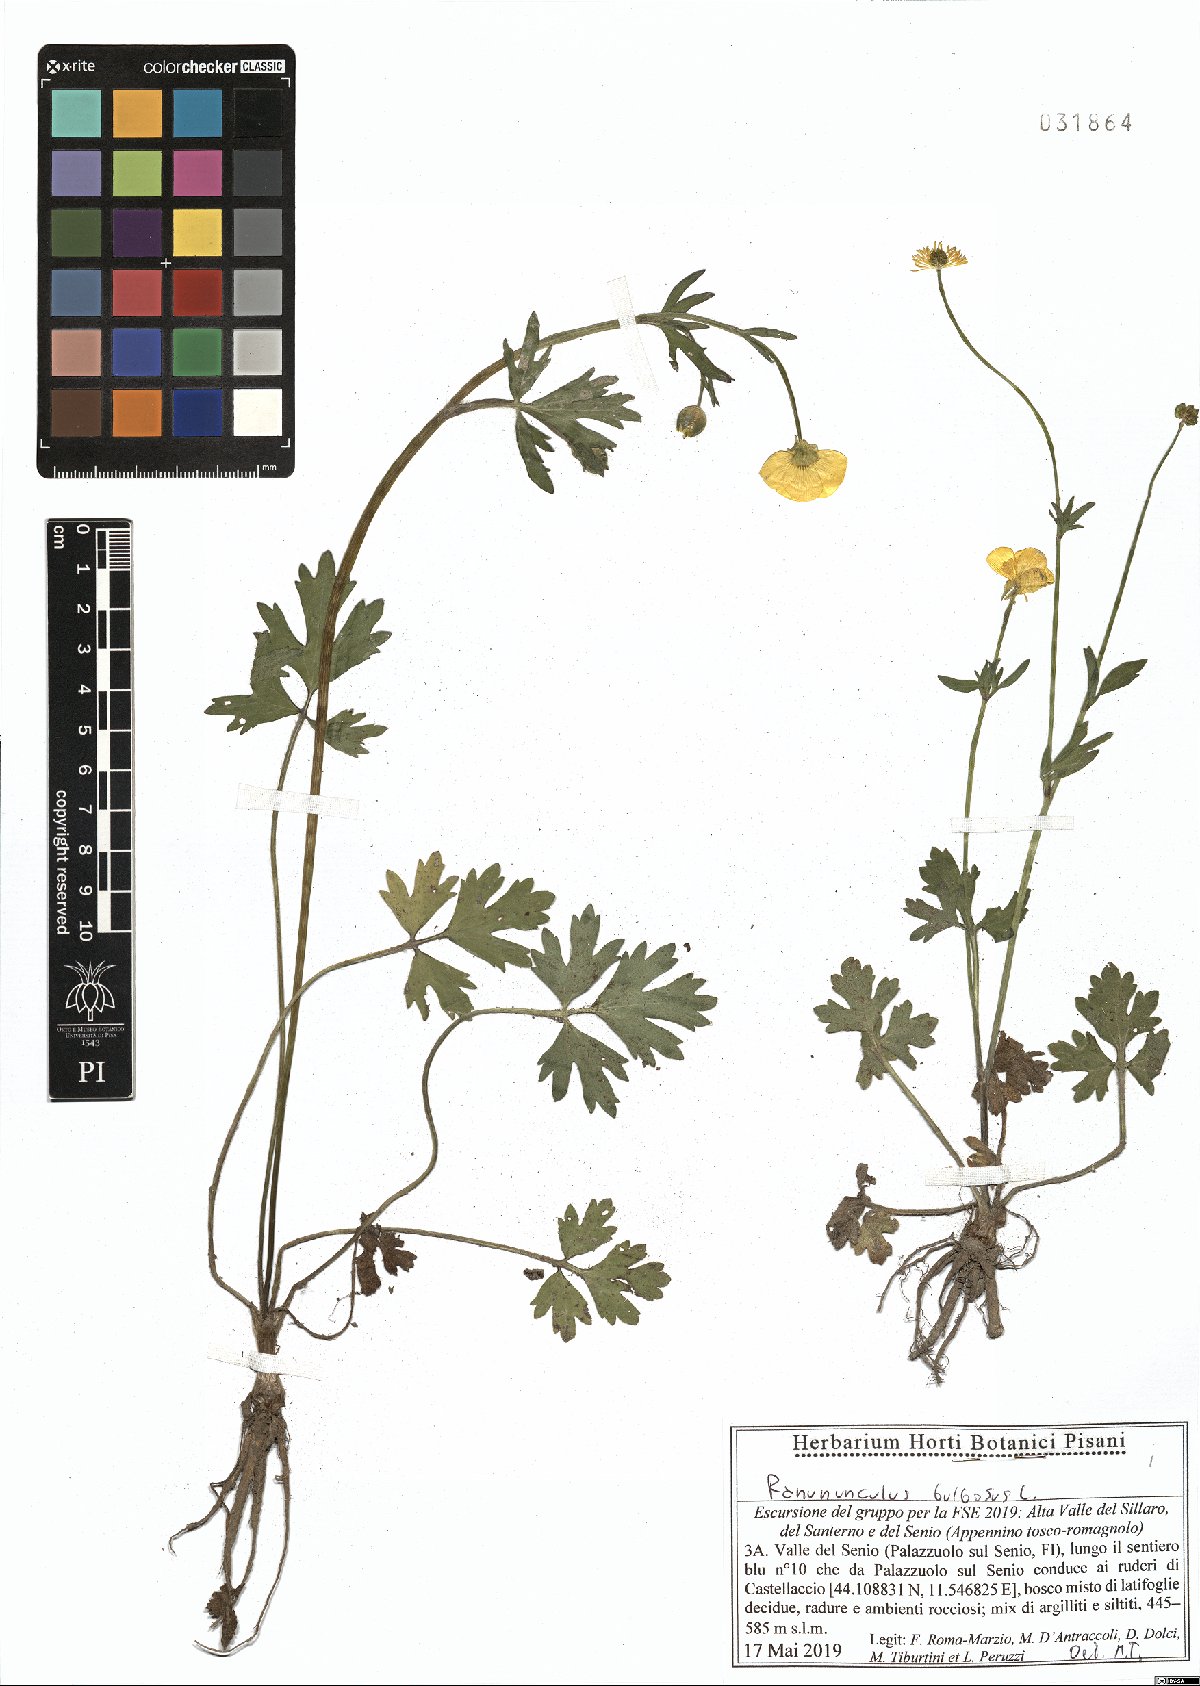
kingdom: Plantae
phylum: Tracheophyta
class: Magnoliopsida
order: Ranunculales
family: Ranunculaceae
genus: Ranunculus
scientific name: Ranunculus bulbosus
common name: Bulbous buttercup
